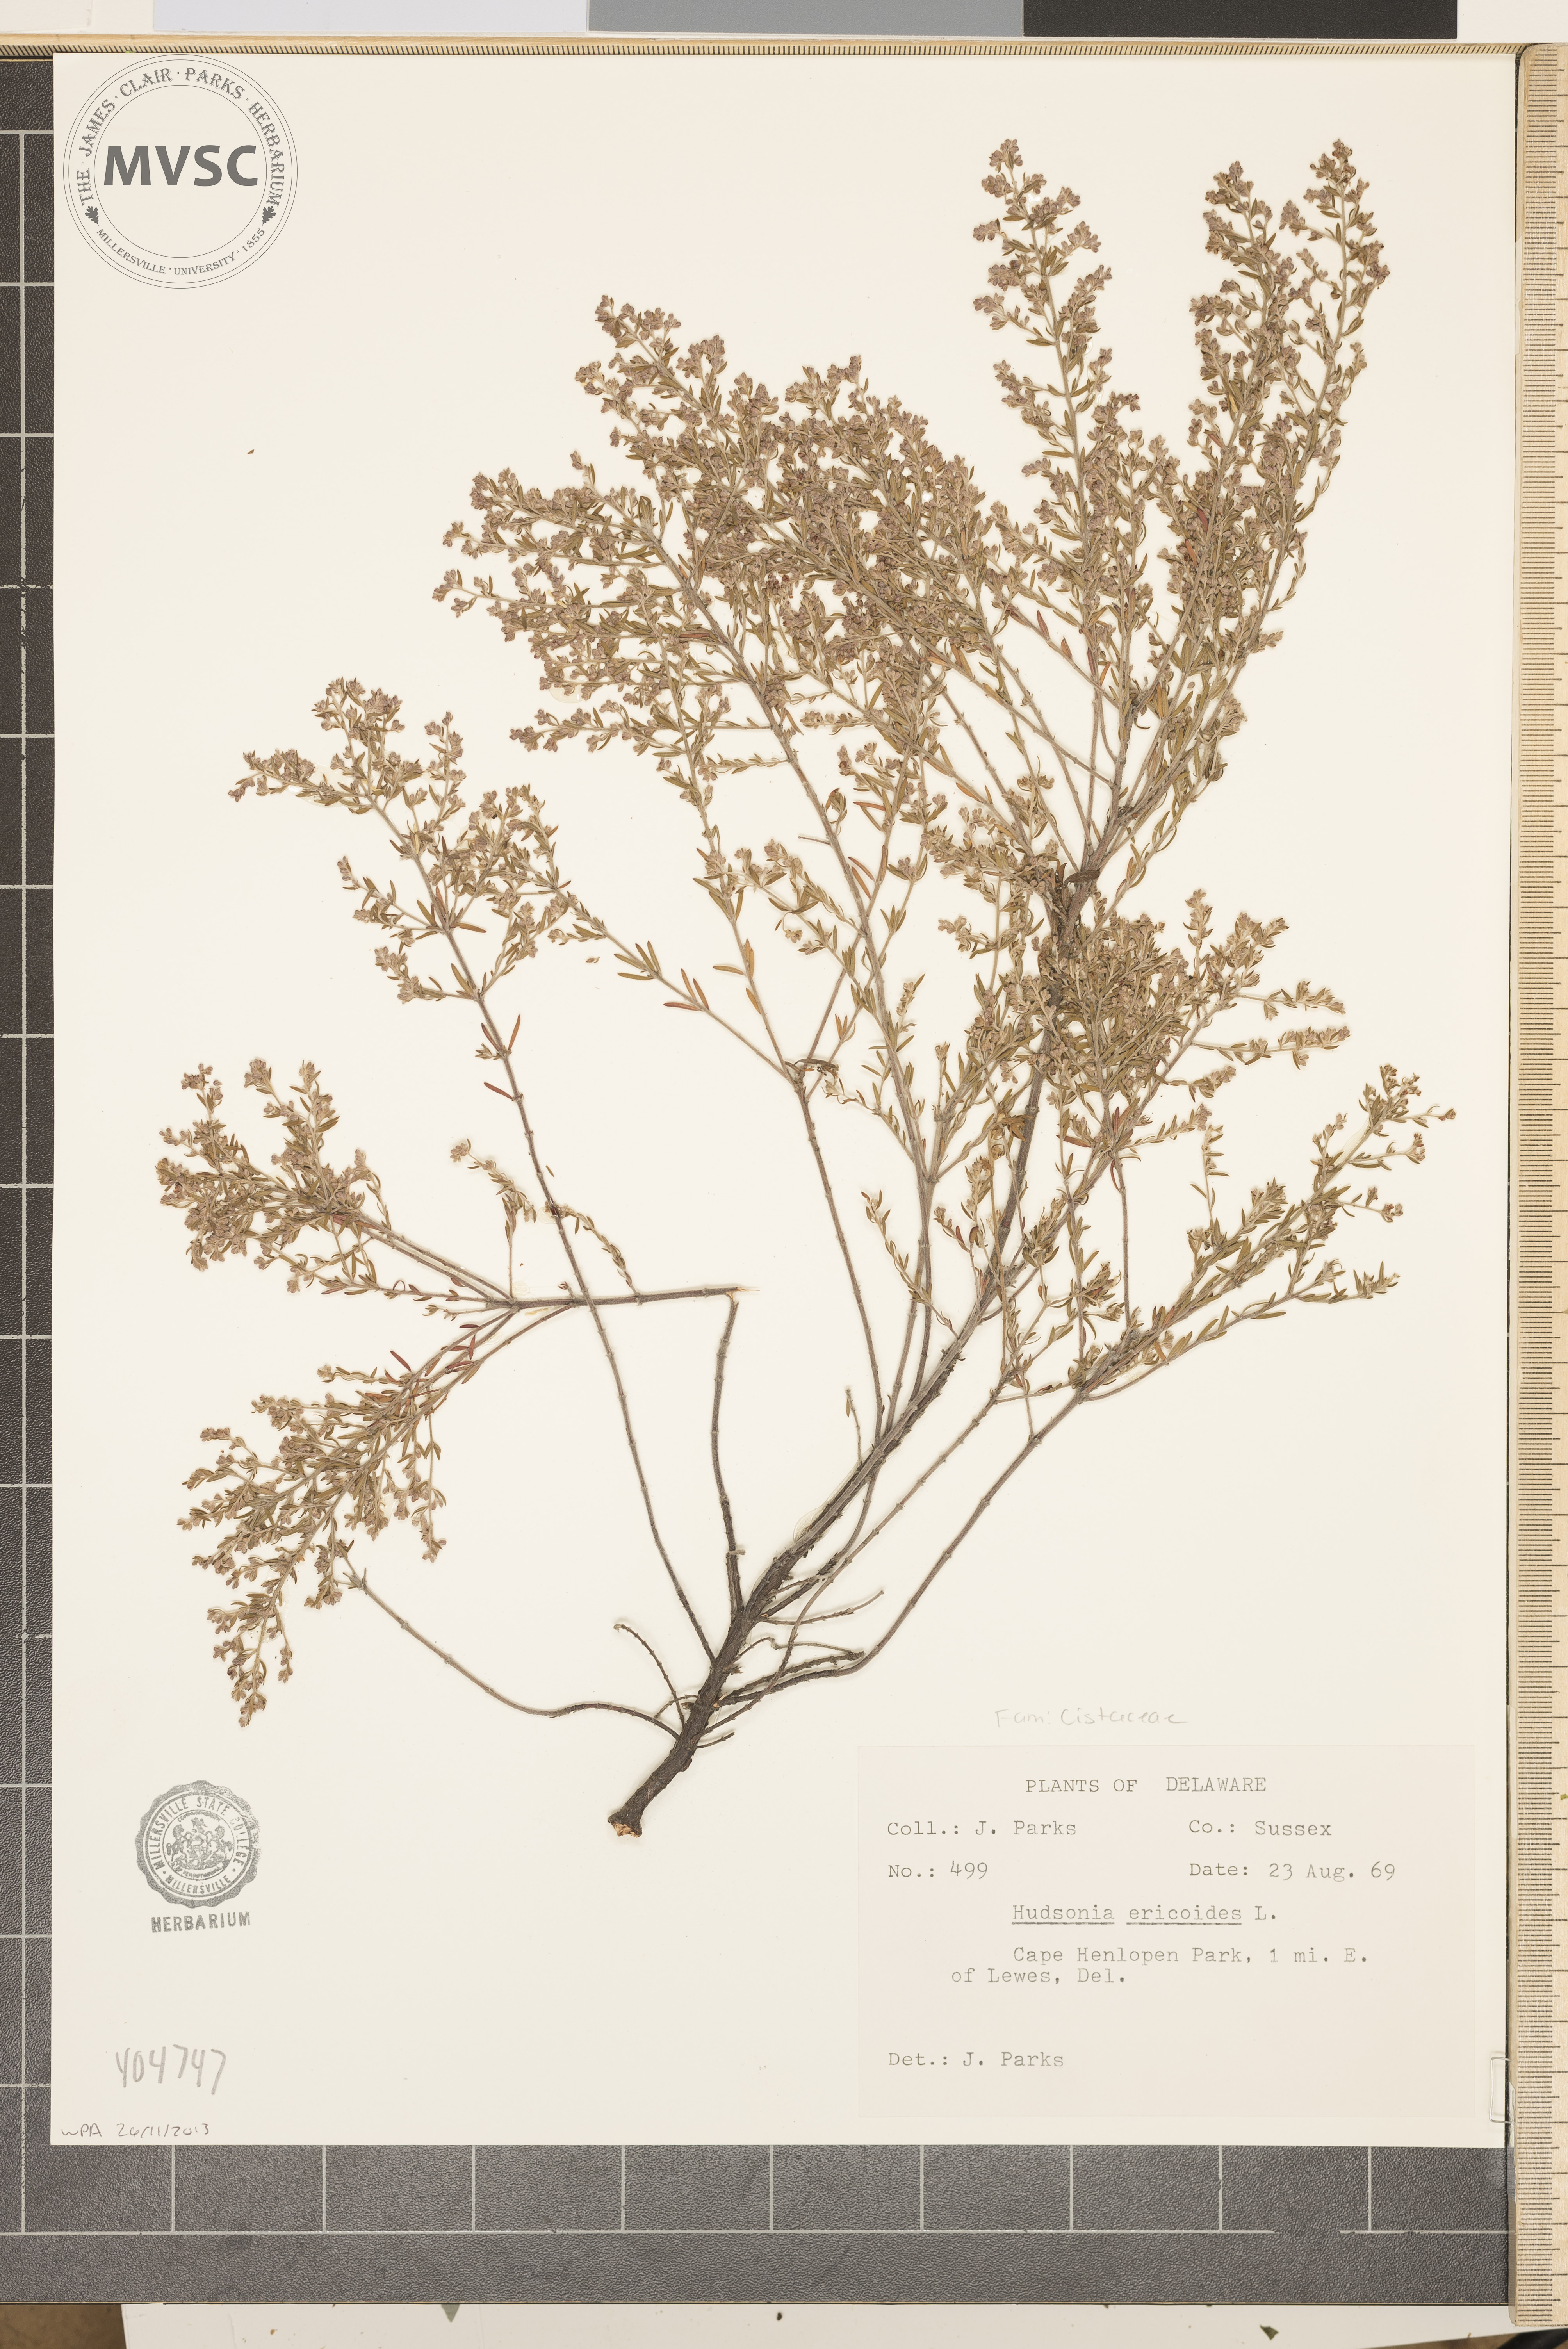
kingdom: Plantae
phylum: Tracheophyta
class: Magnoliopsida
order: Malvales
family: Cistaceae
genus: Hudsonia
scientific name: Hudsonia ericoides
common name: Golden-heather
